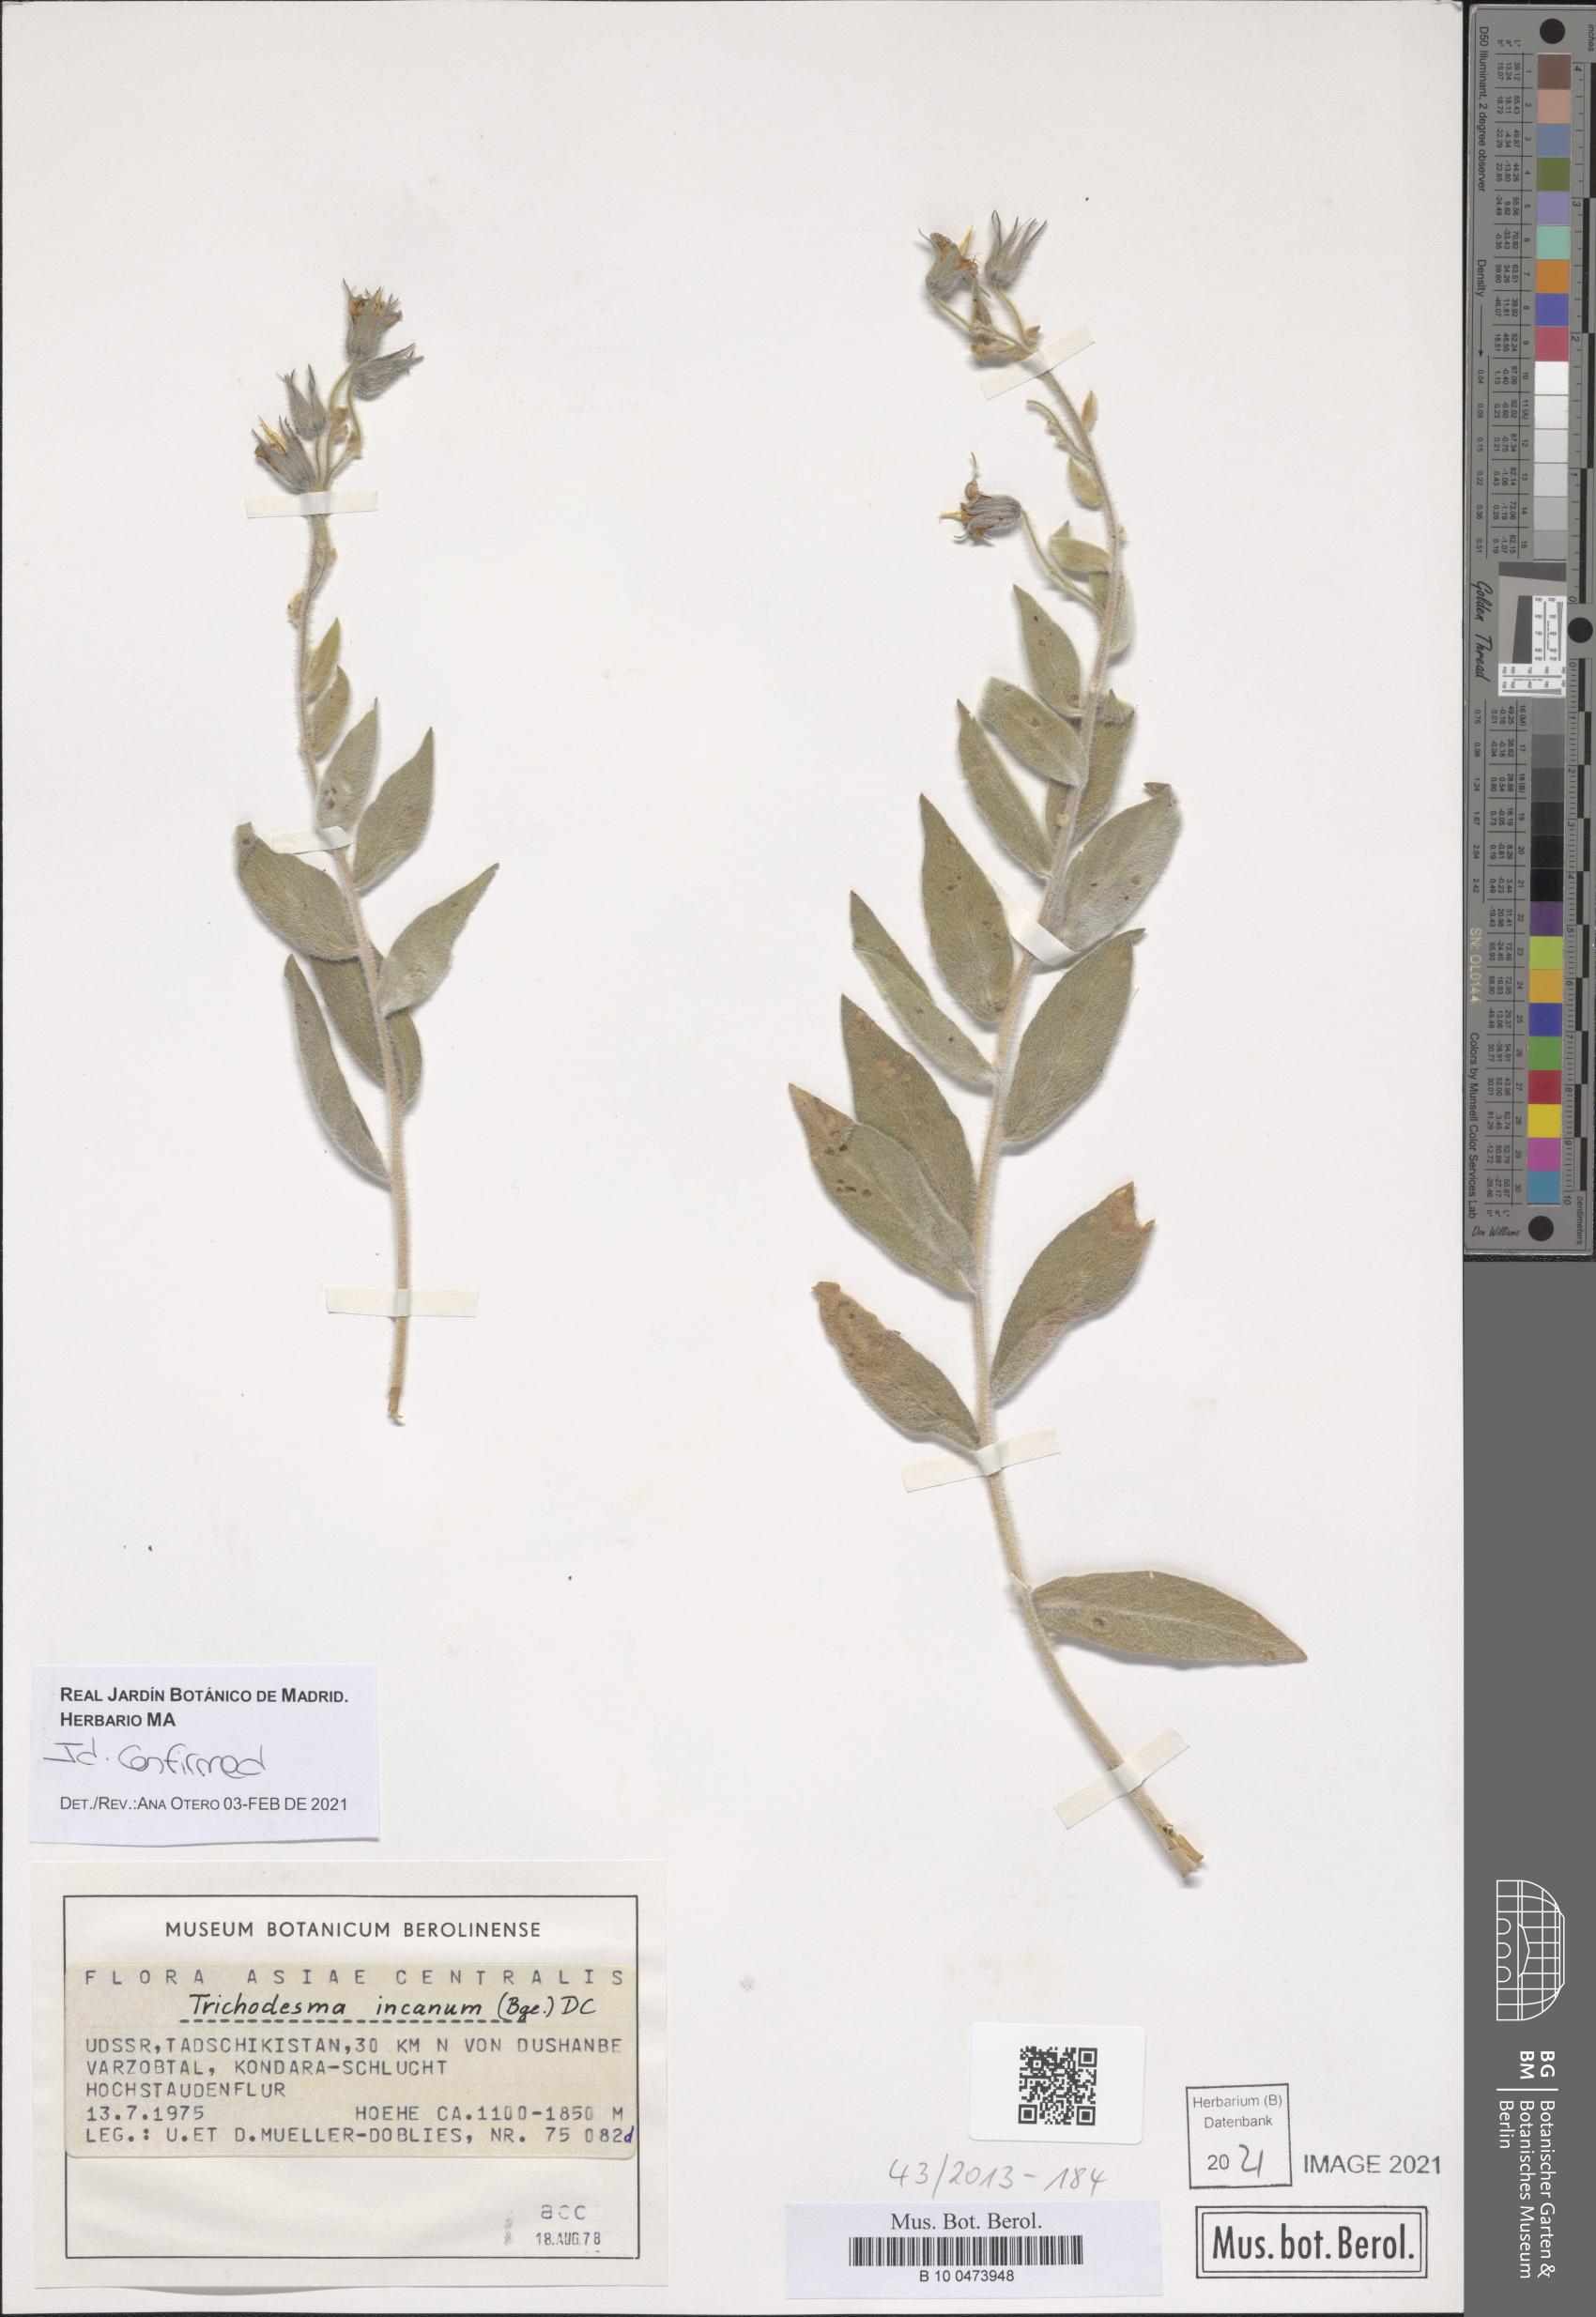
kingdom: Plantae
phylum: Tracheophyta
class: Magnoliopsida
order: Boraginales
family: Boraginaceae
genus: Trichodesma
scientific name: Trichodesma incanum
